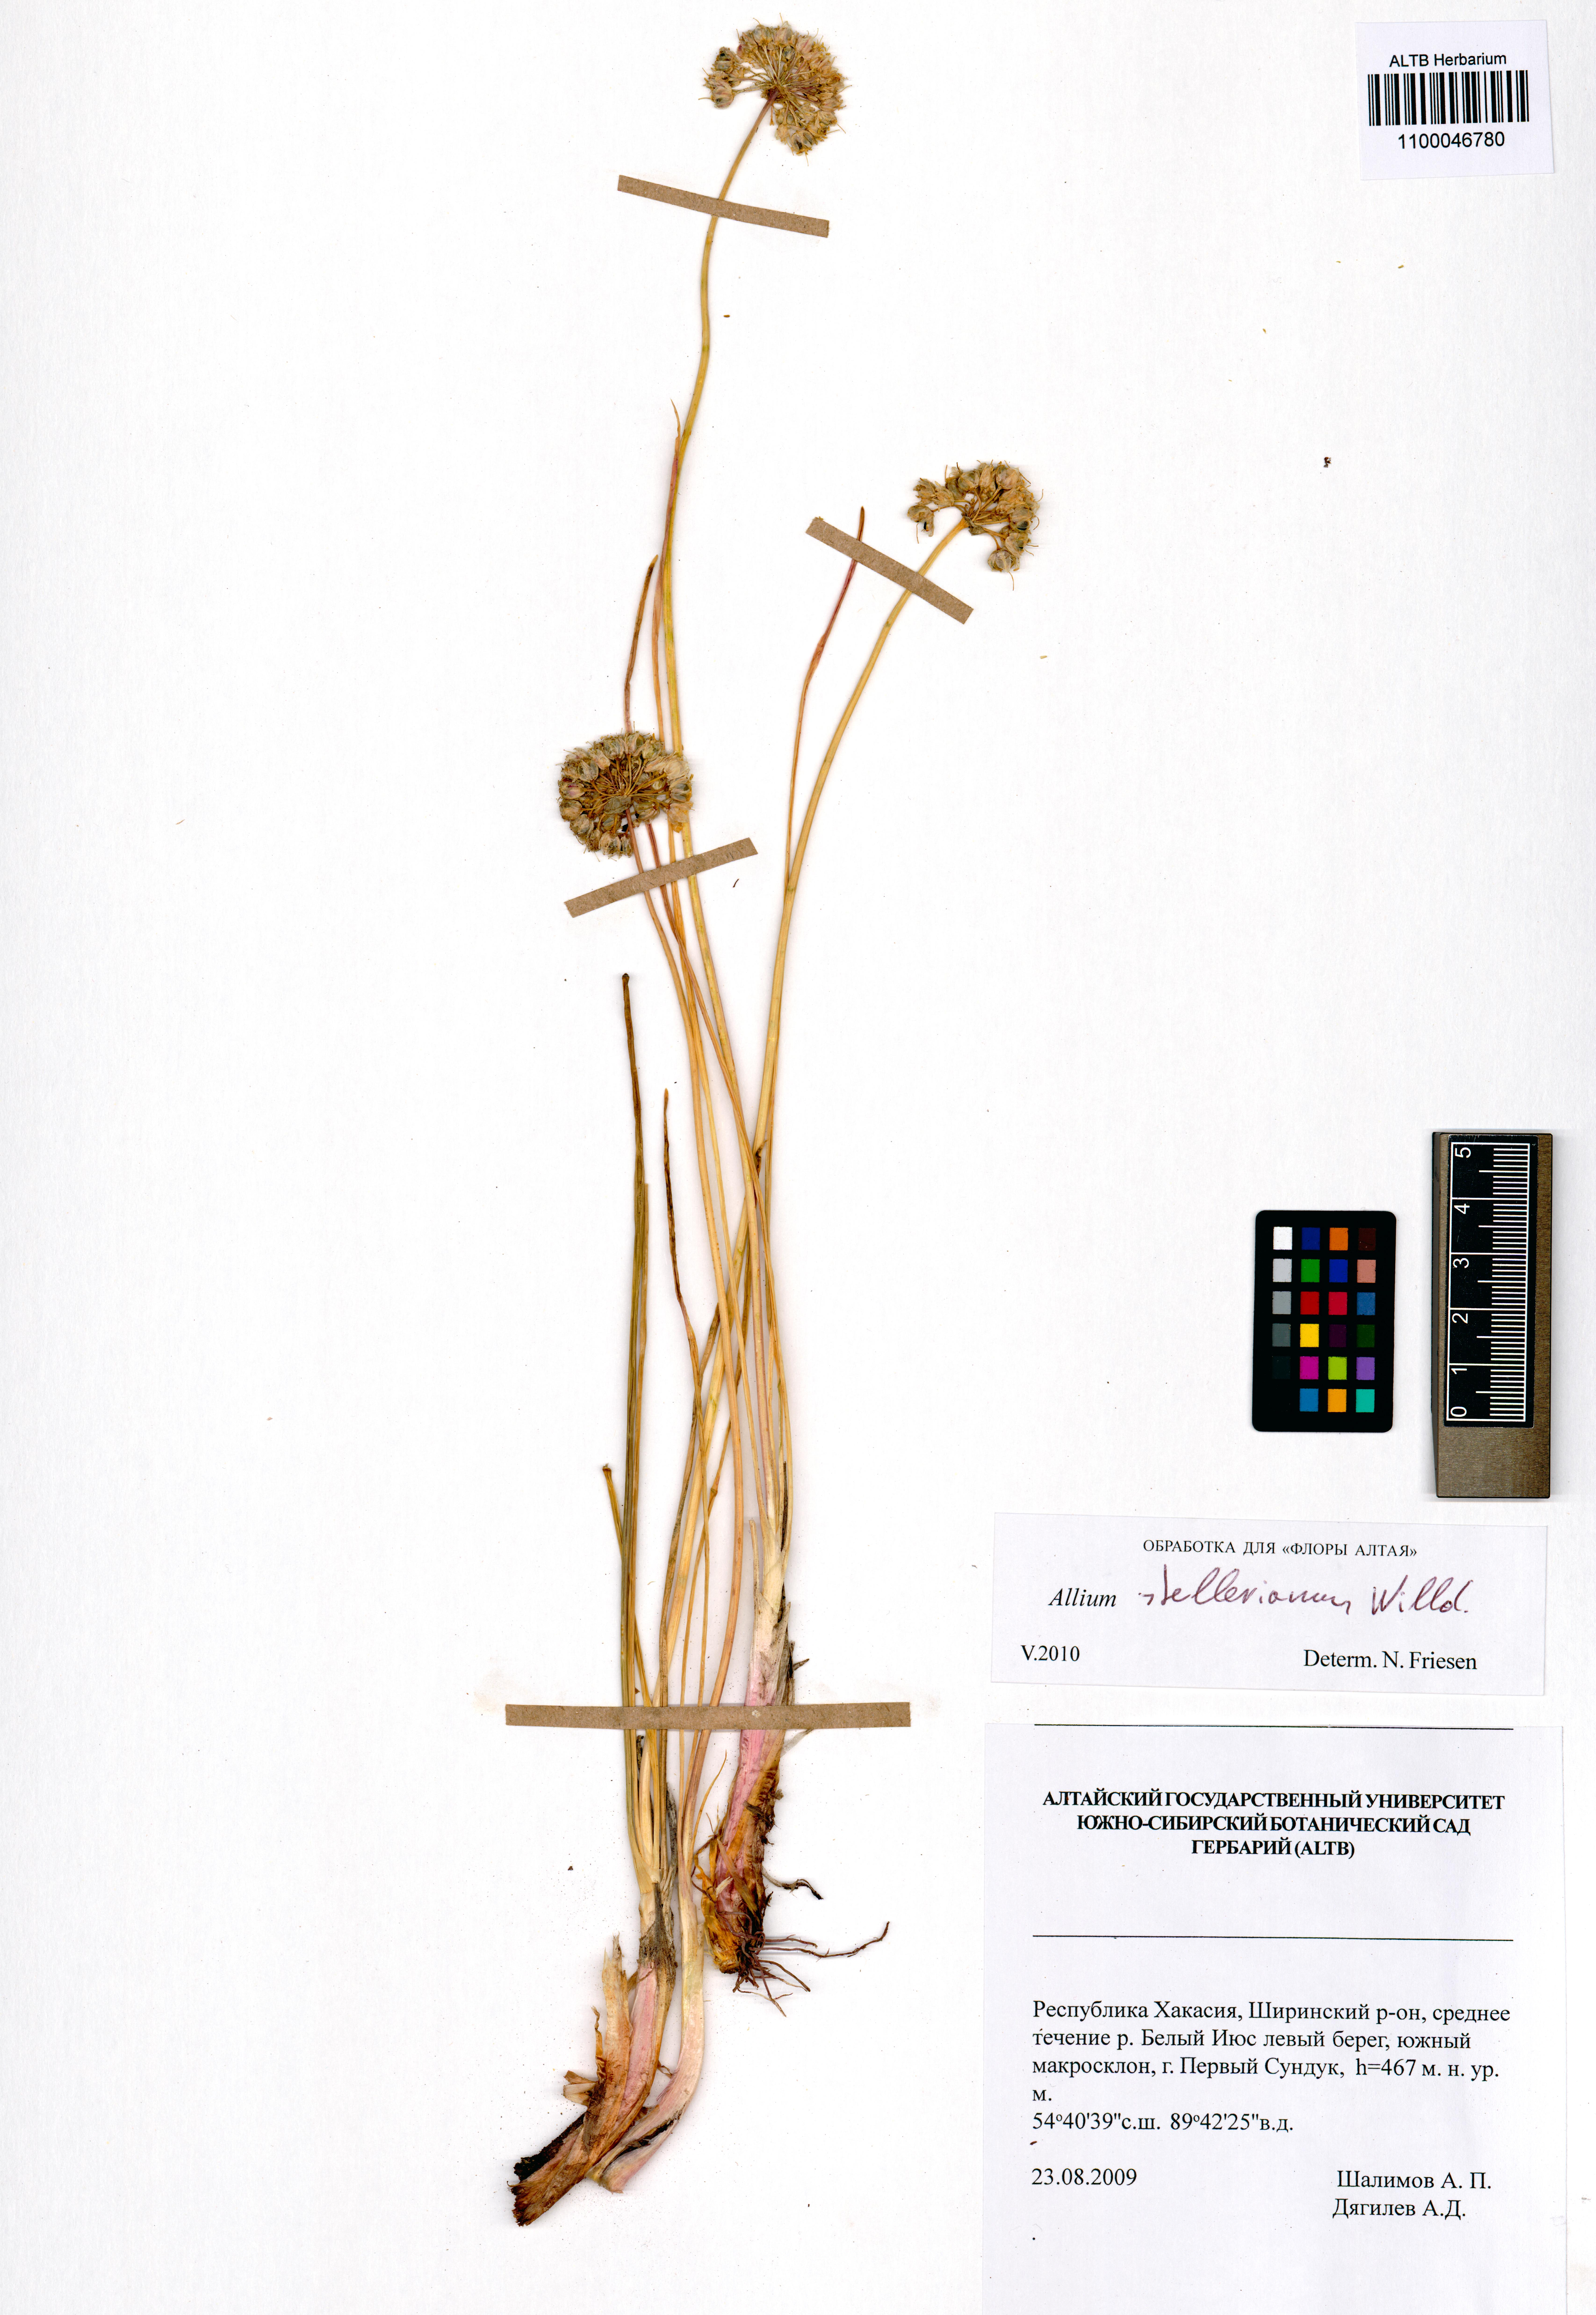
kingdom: Plantae
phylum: Tracheophyta
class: Liliopsida
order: Asparagales
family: Amaryllidaceae
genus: Allium
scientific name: Allium stellerianum
